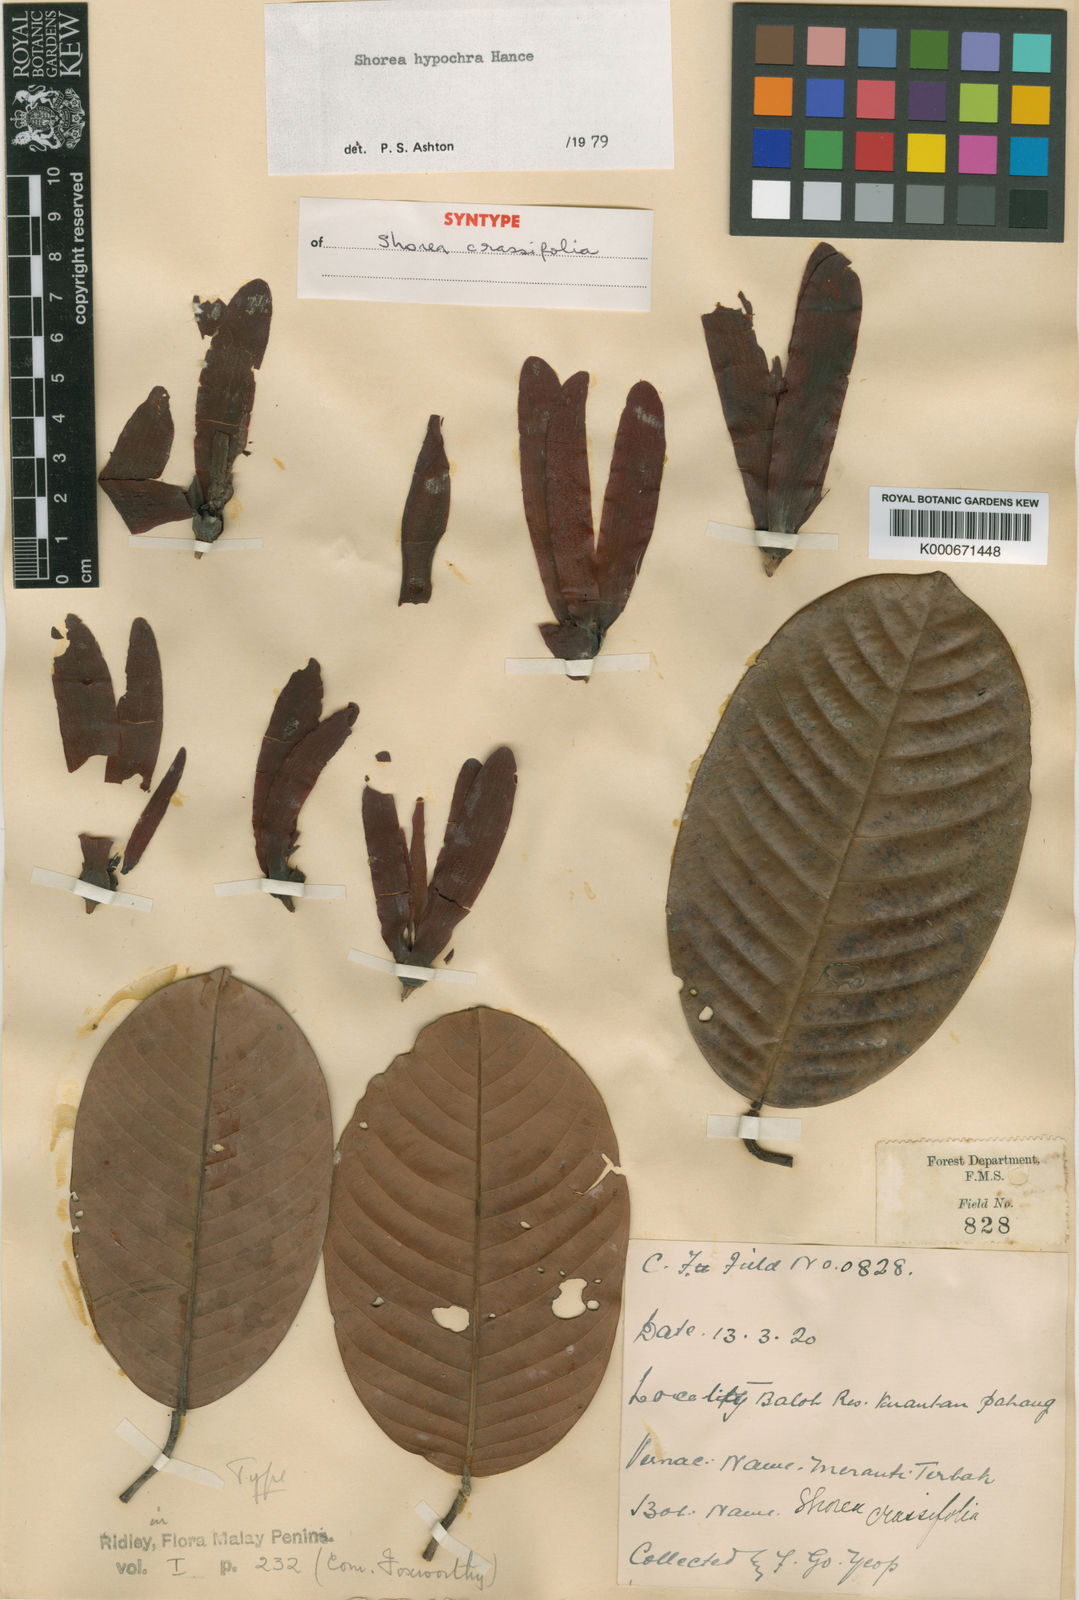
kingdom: Plantae
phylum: Tracheophyta
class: Magnoliopsida
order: Malvales
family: Dipterocarpaceae
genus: Anthoshorea
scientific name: Anthoshorea hypochra
